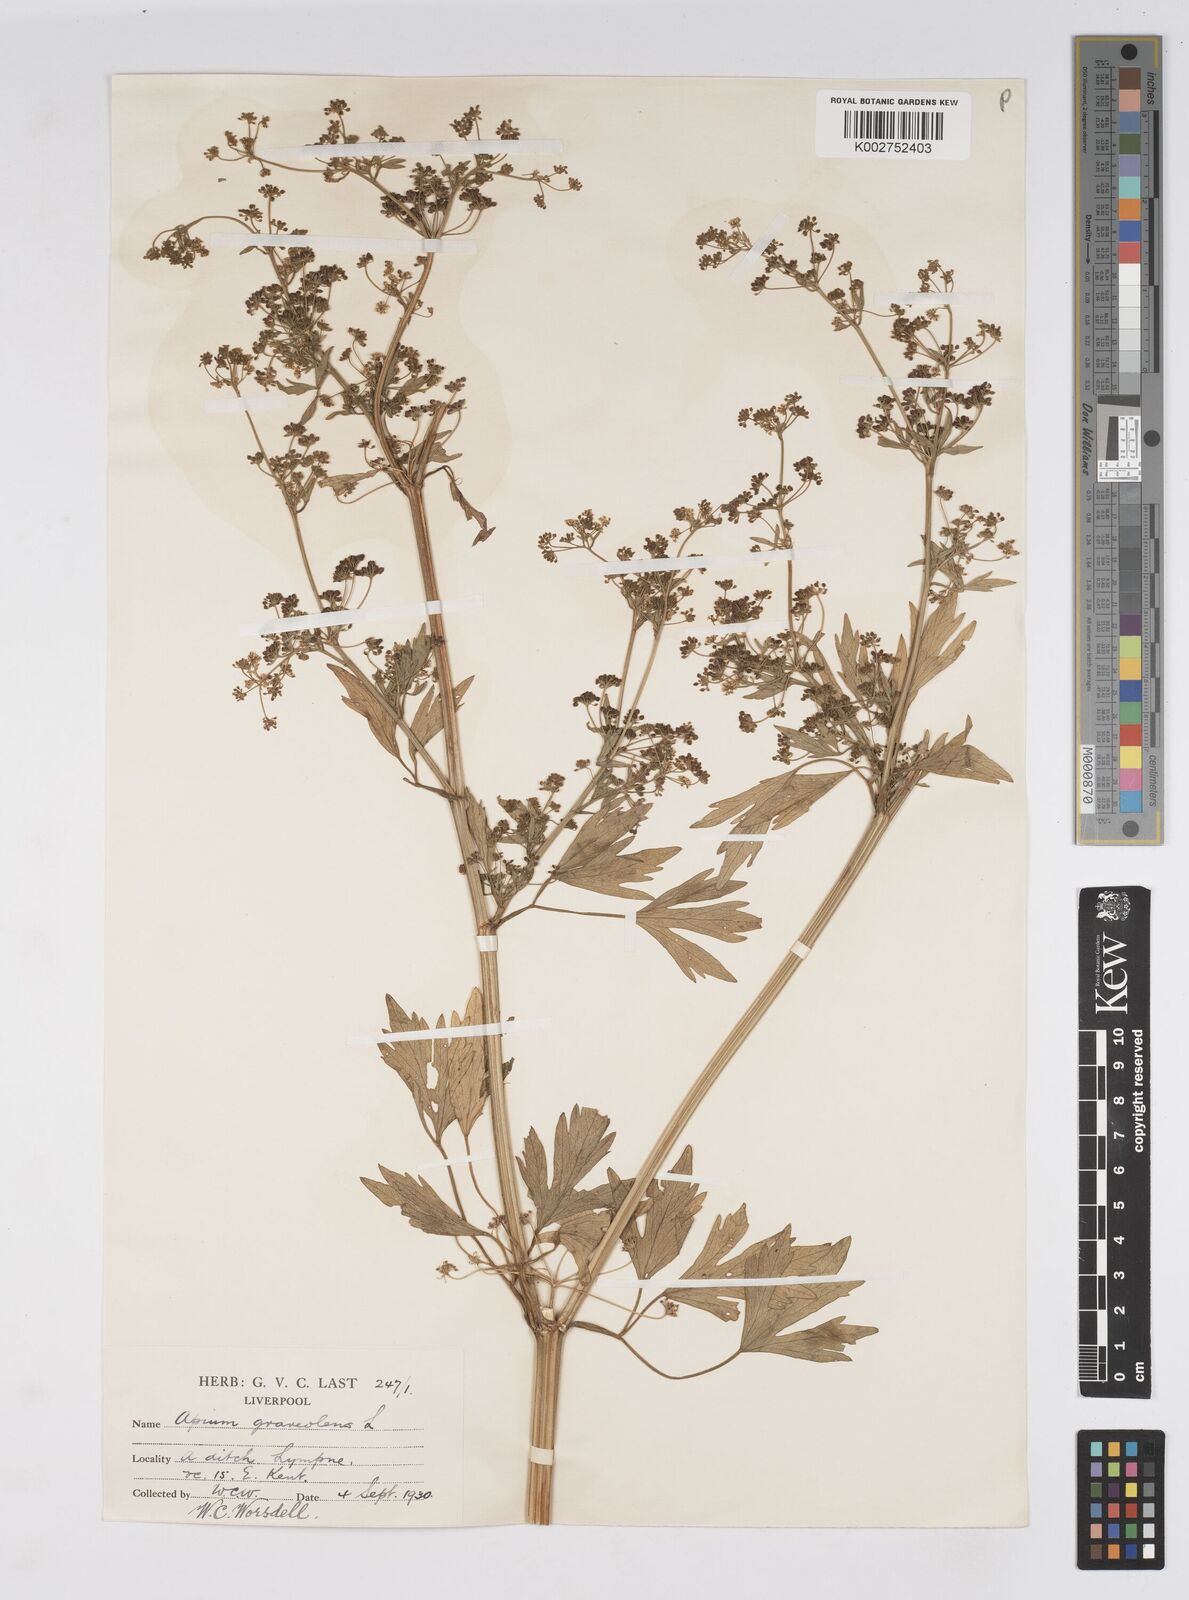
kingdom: Plantae
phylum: Tracheophyta
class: Magnoliopsida
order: Apiales
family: Apiaceae
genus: Apium
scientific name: Apium graveolens
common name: Wild celery
